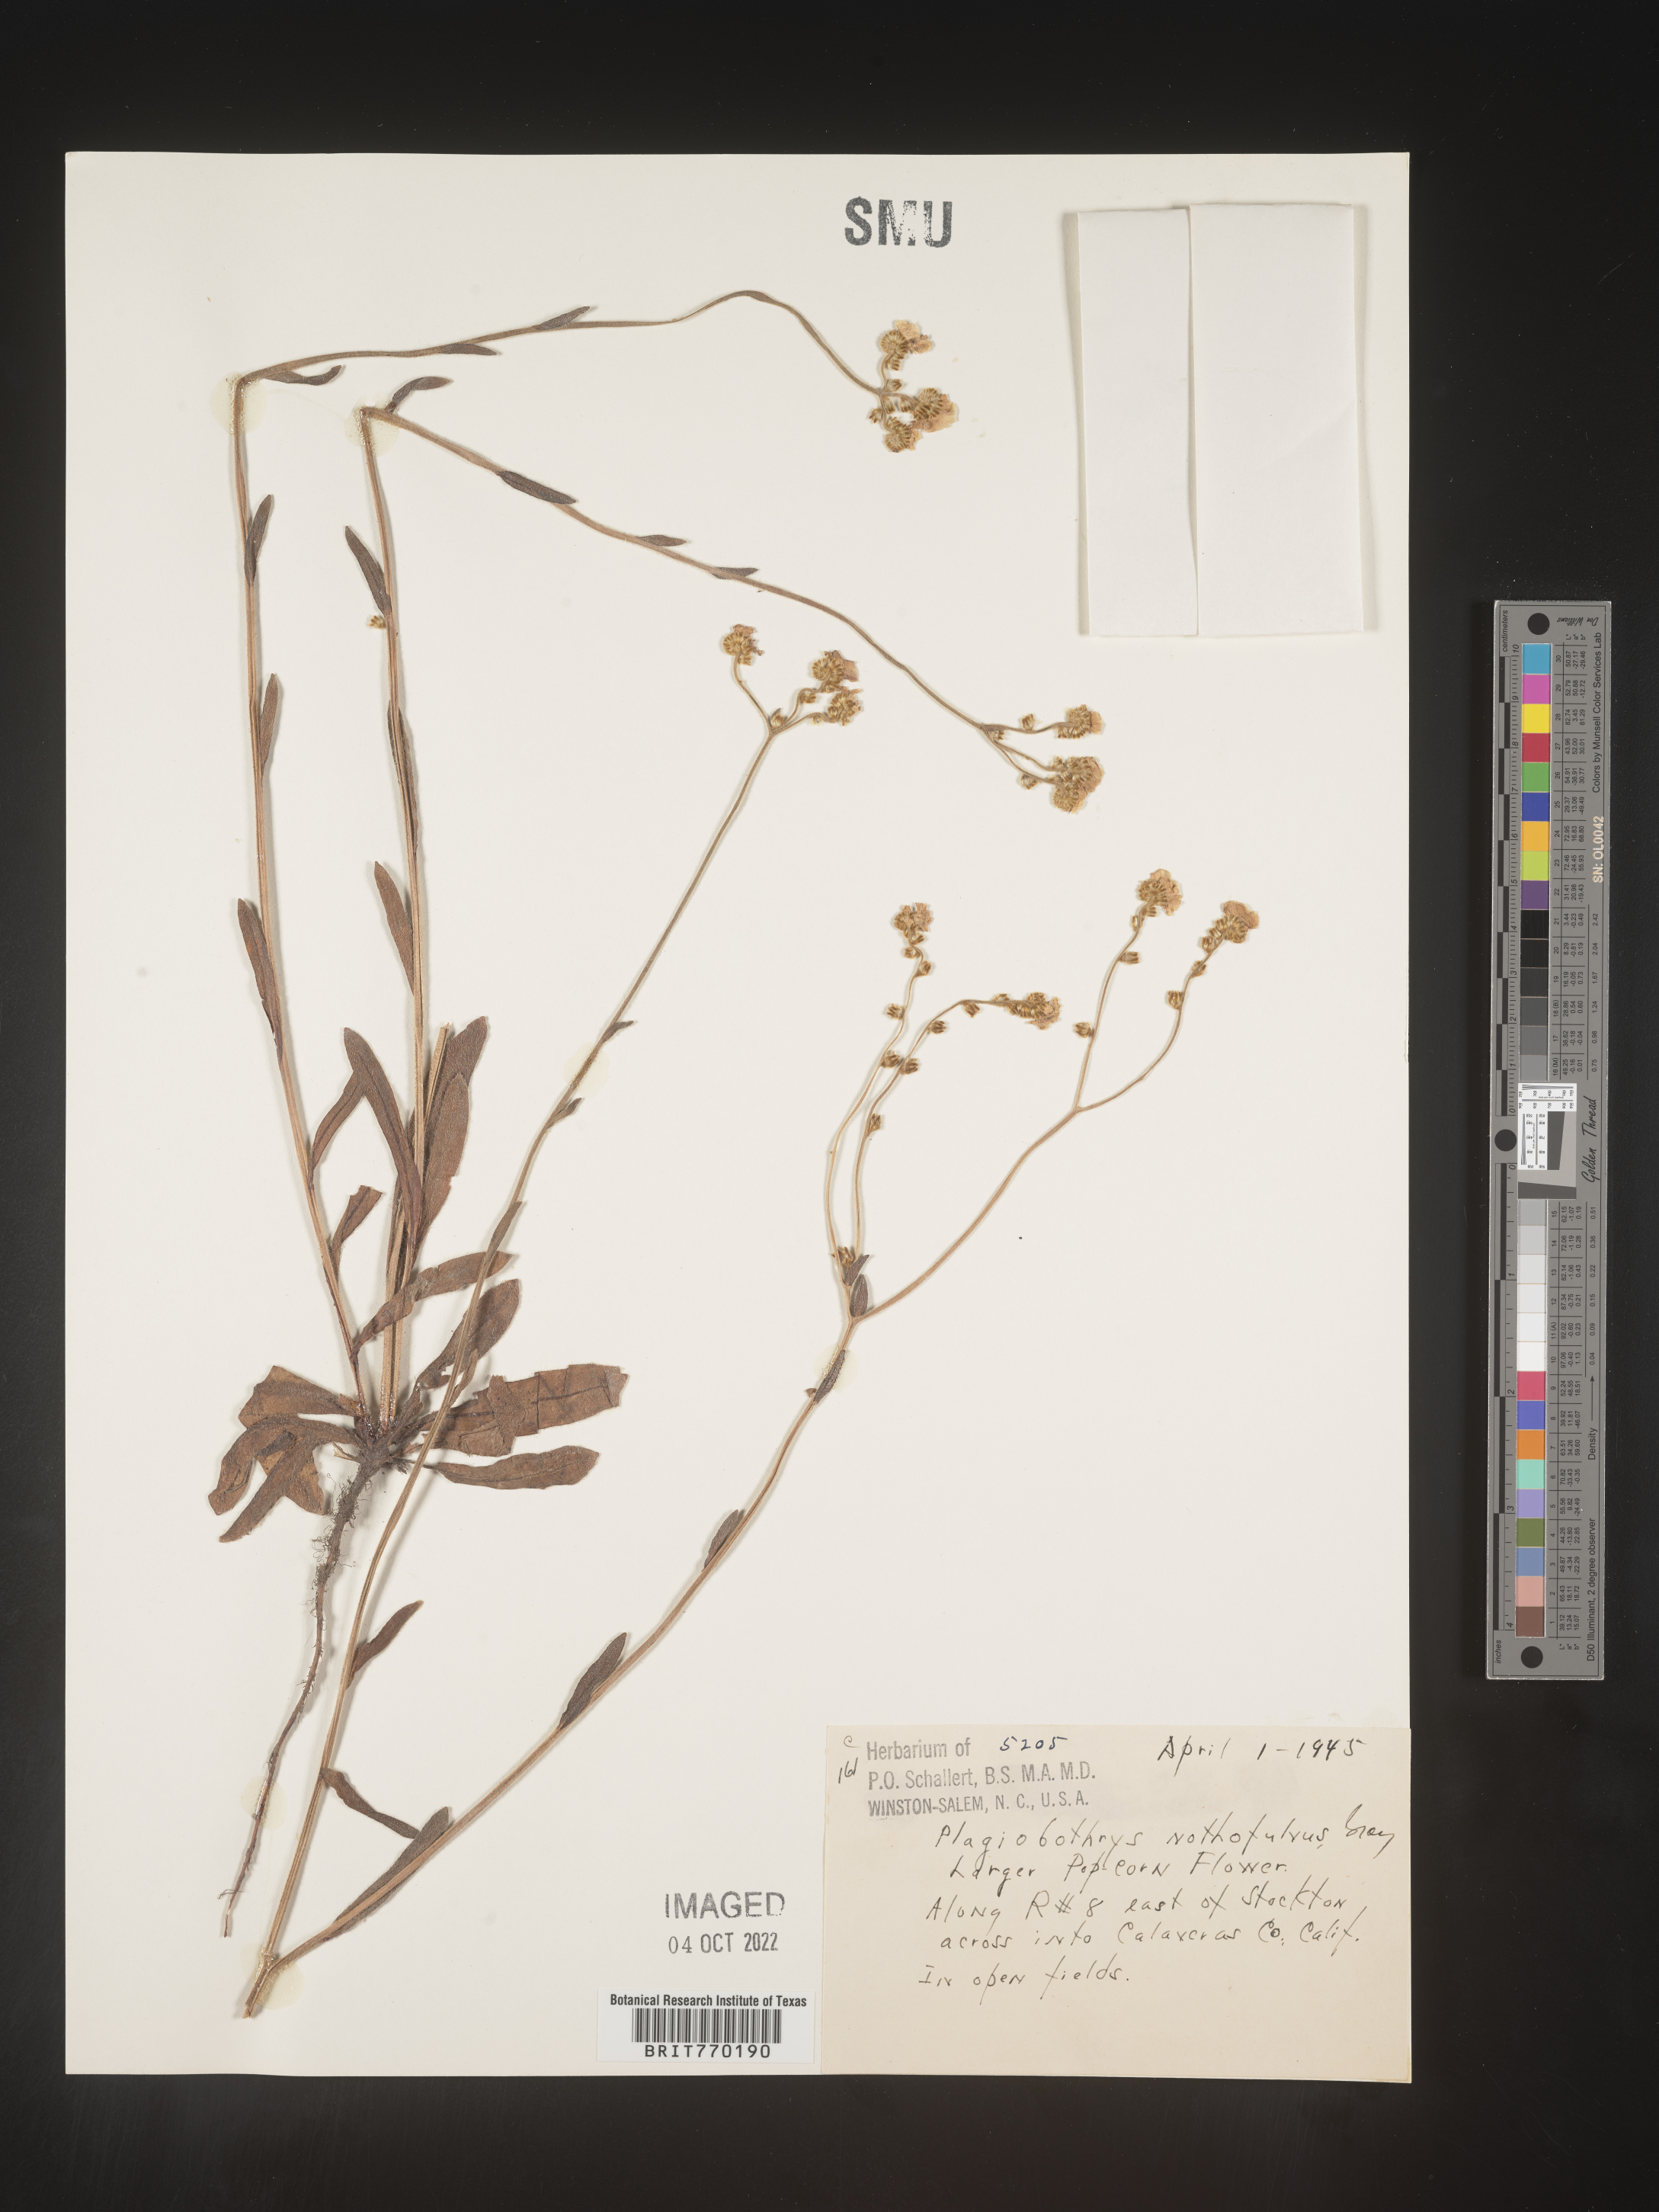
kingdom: Plantae
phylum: Tracheophyta
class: Magnoliopsida
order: Boraginales
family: Boraginaceae
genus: Plagiobothrys
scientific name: Plagiobothrys
